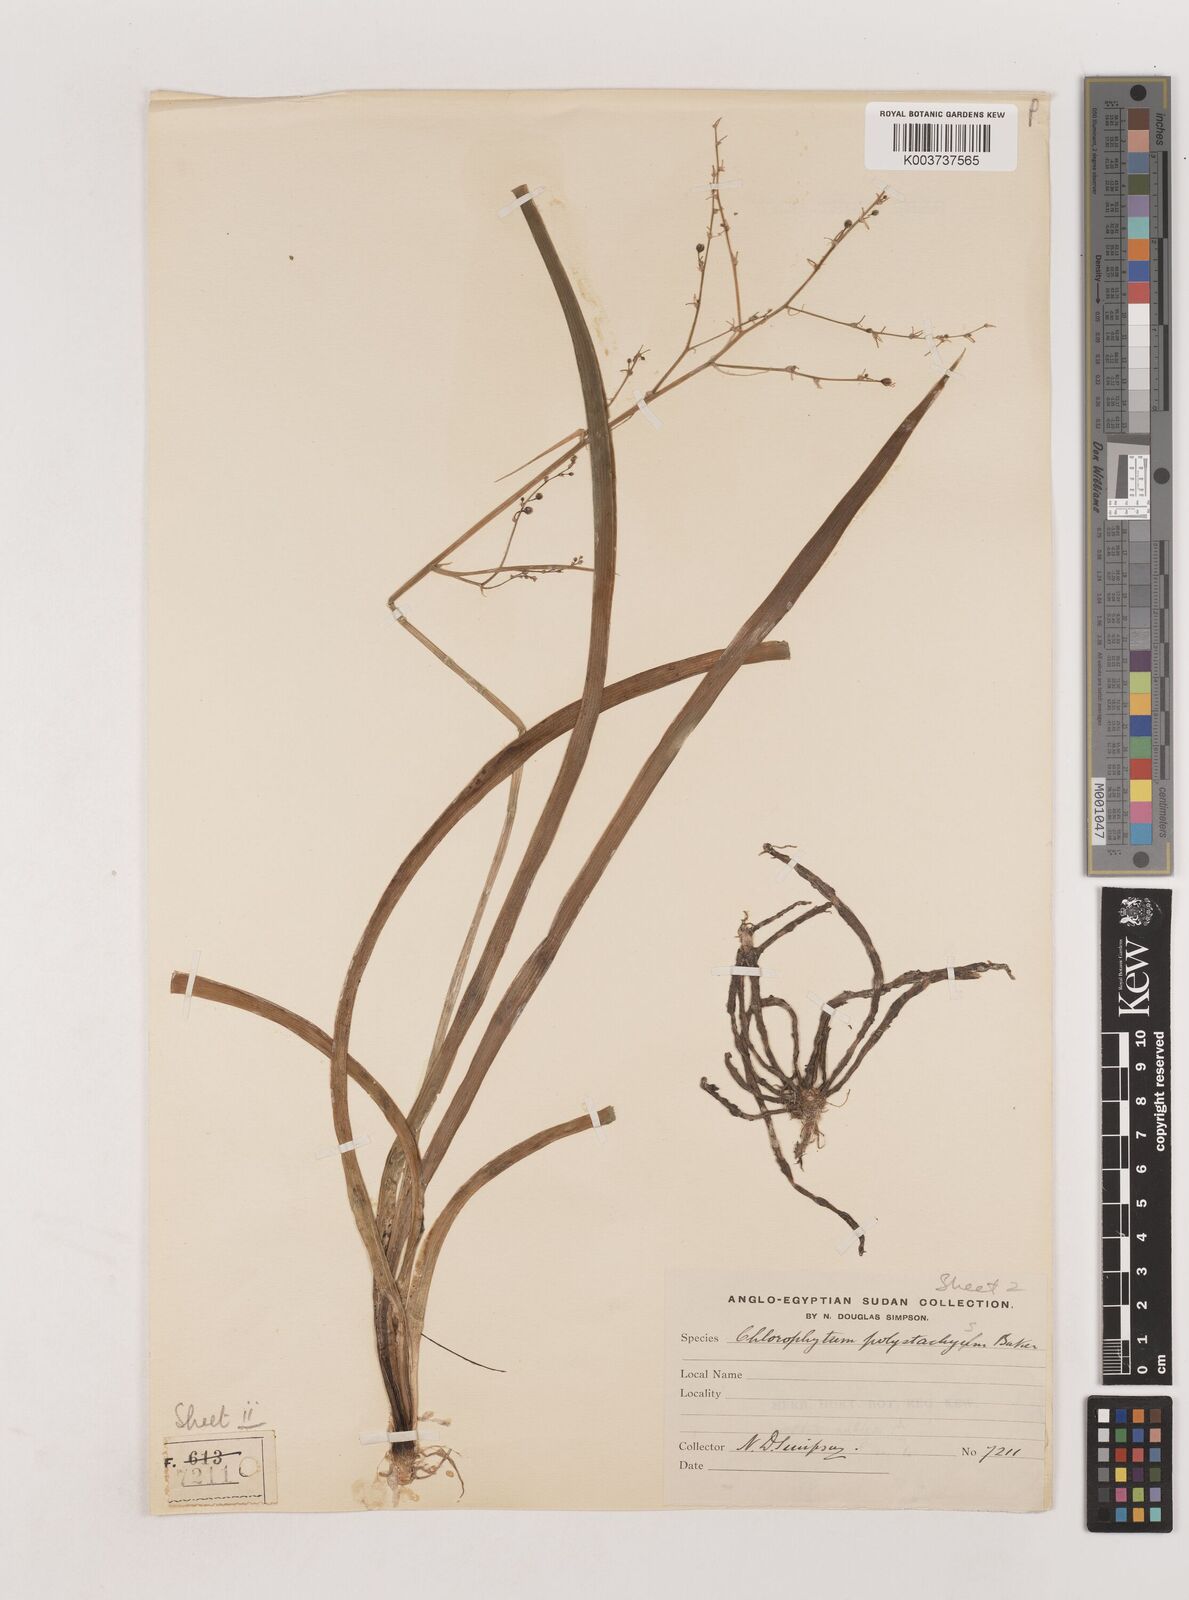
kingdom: Plantae
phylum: Tracheophyta
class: Liliopsida
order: Asparagales
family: Asparagaceae
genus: Chlorophytum
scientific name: Chlorophytum polystachys
